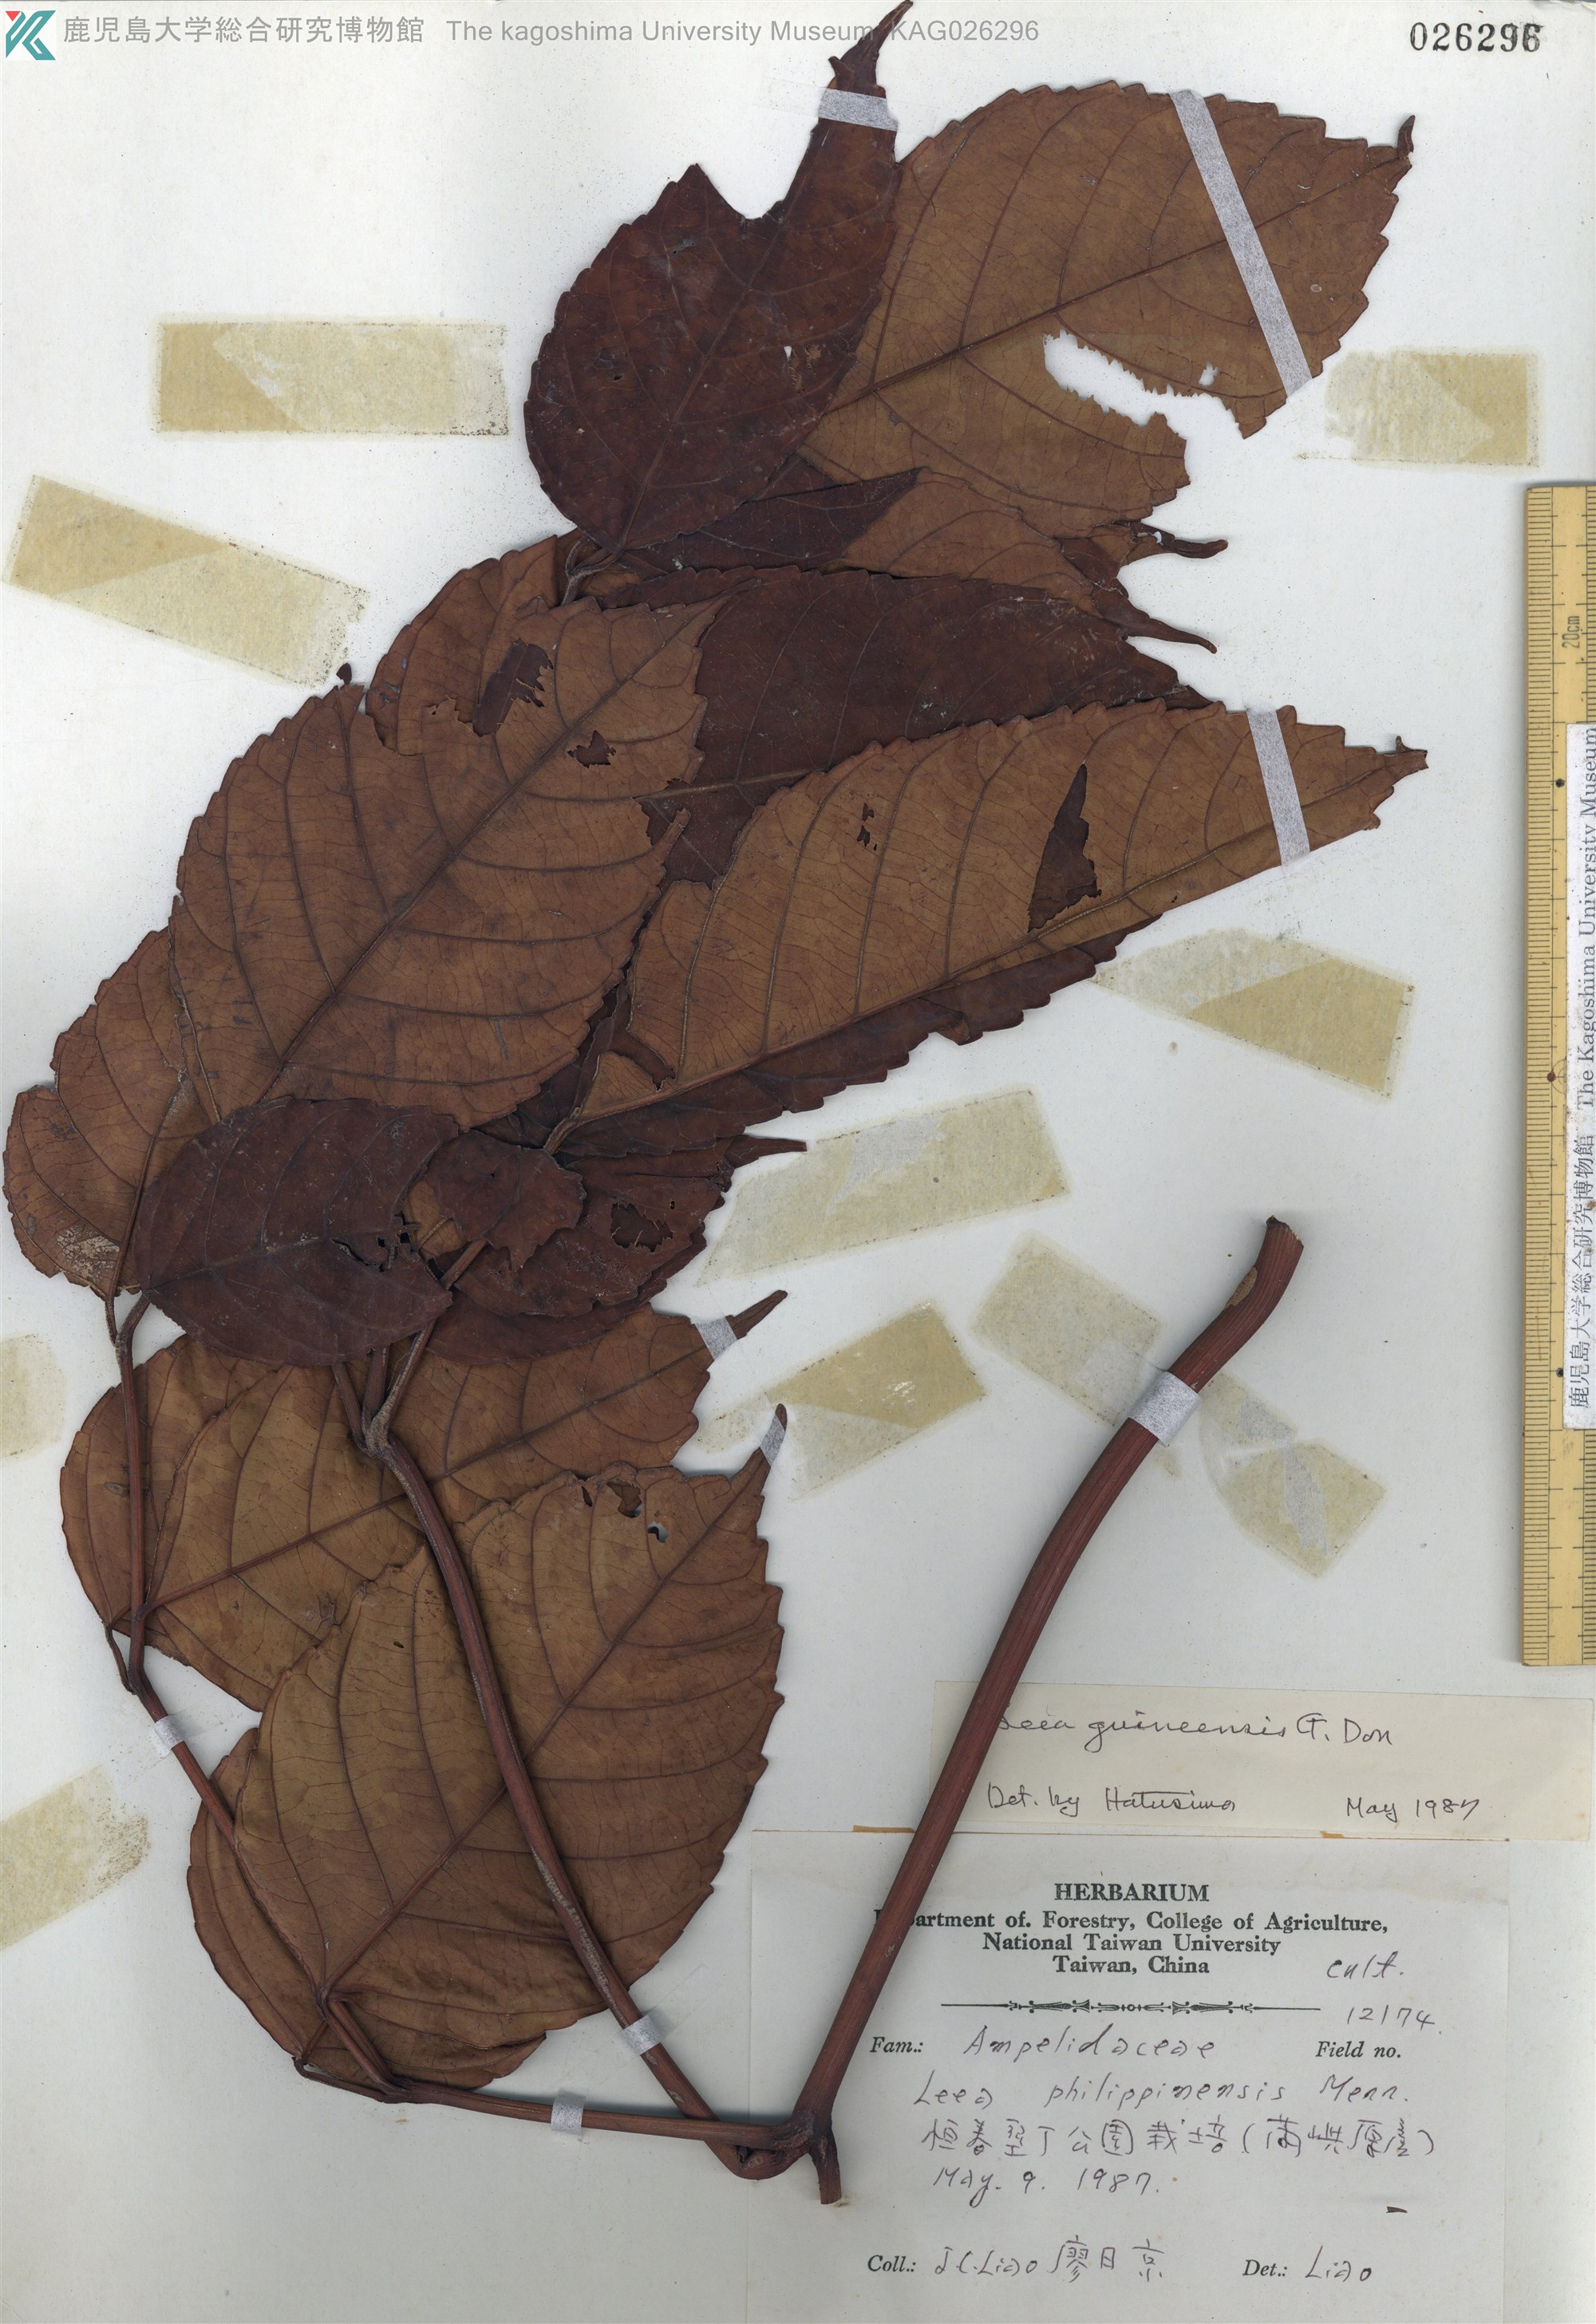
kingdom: Plantae
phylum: Tracheophyta
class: Magnoliopsida
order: Vitales
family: Vitaceae
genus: Leea
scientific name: Leea guineensis
